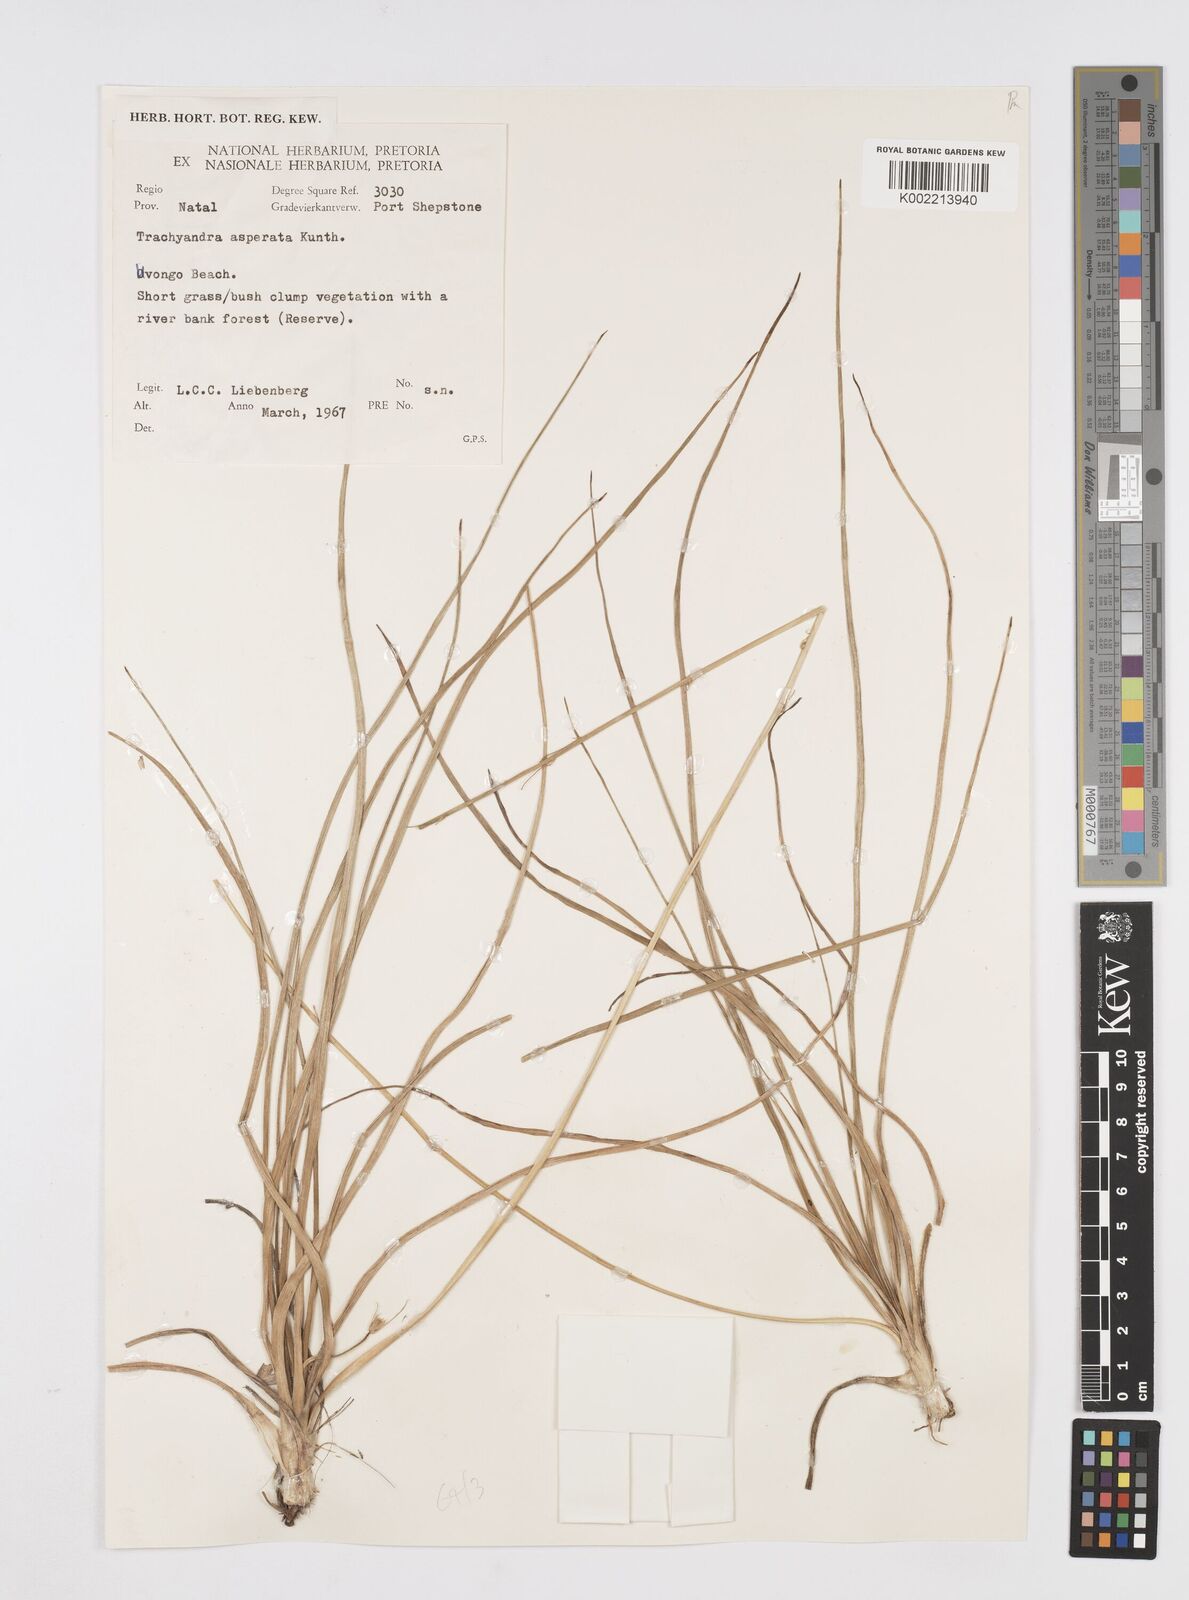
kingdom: Plantae
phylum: Tracheophyta
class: Liliopsida
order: Asparagales
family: Asphodelaceae
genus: Trachyandra
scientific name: Trachyandra asperata
